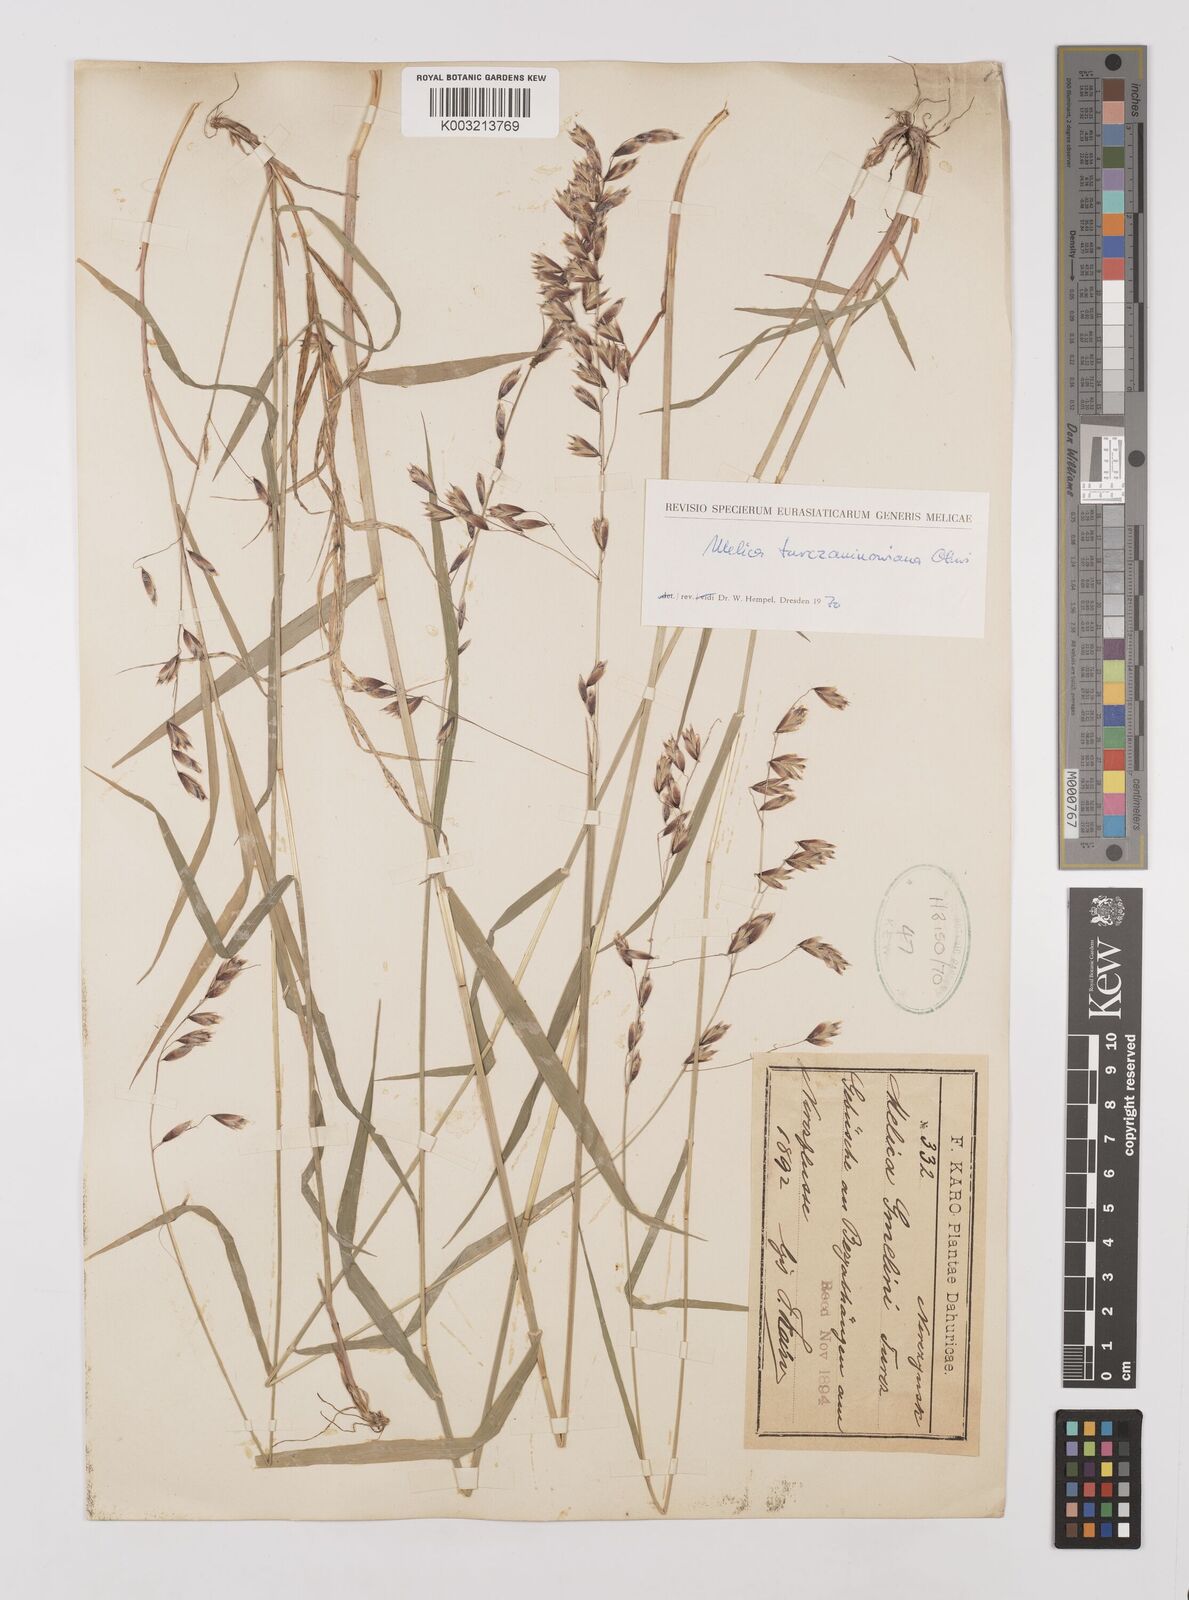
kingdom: Plantae
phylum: Tracheophyta
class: Liliopsida
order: Poales
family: Poaceae
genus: Melica
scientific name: Melica turczaninowiana
